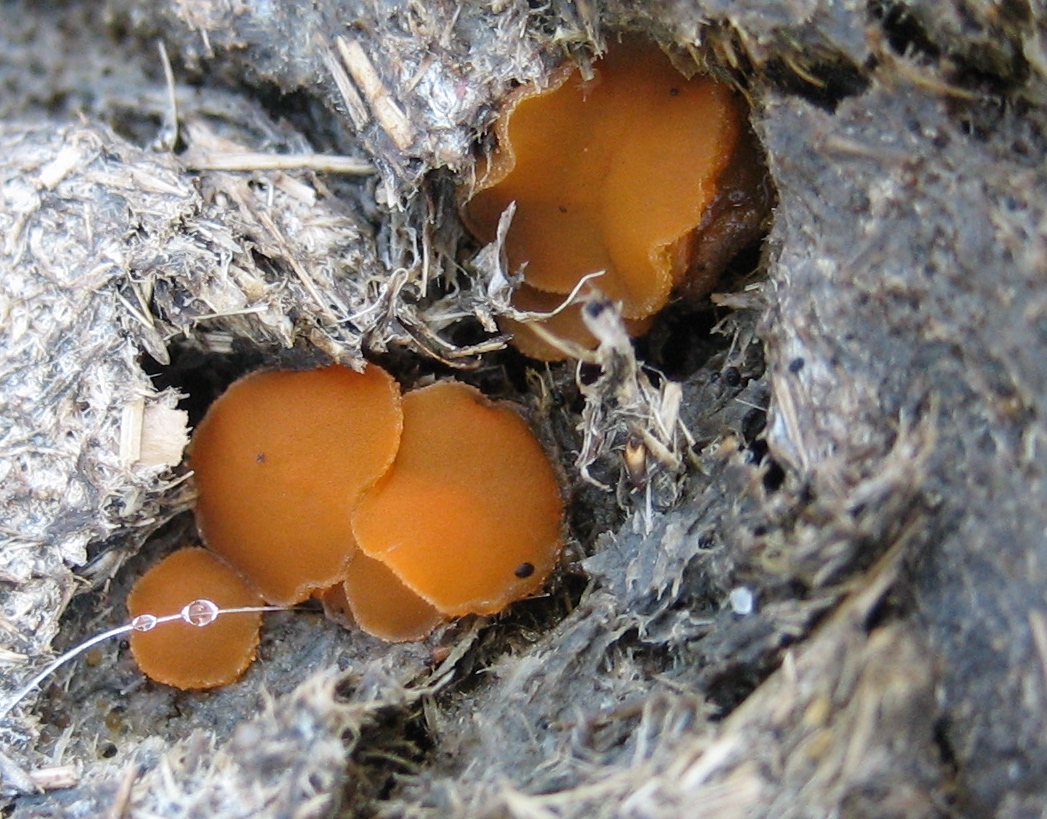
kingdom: Fungi
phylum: Ascomycota
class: Pezizomycetes
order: Pezizales
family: Pyronemataceae
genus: Cheilymenia
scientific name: Cheilymenia granulata
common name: møgbæger
